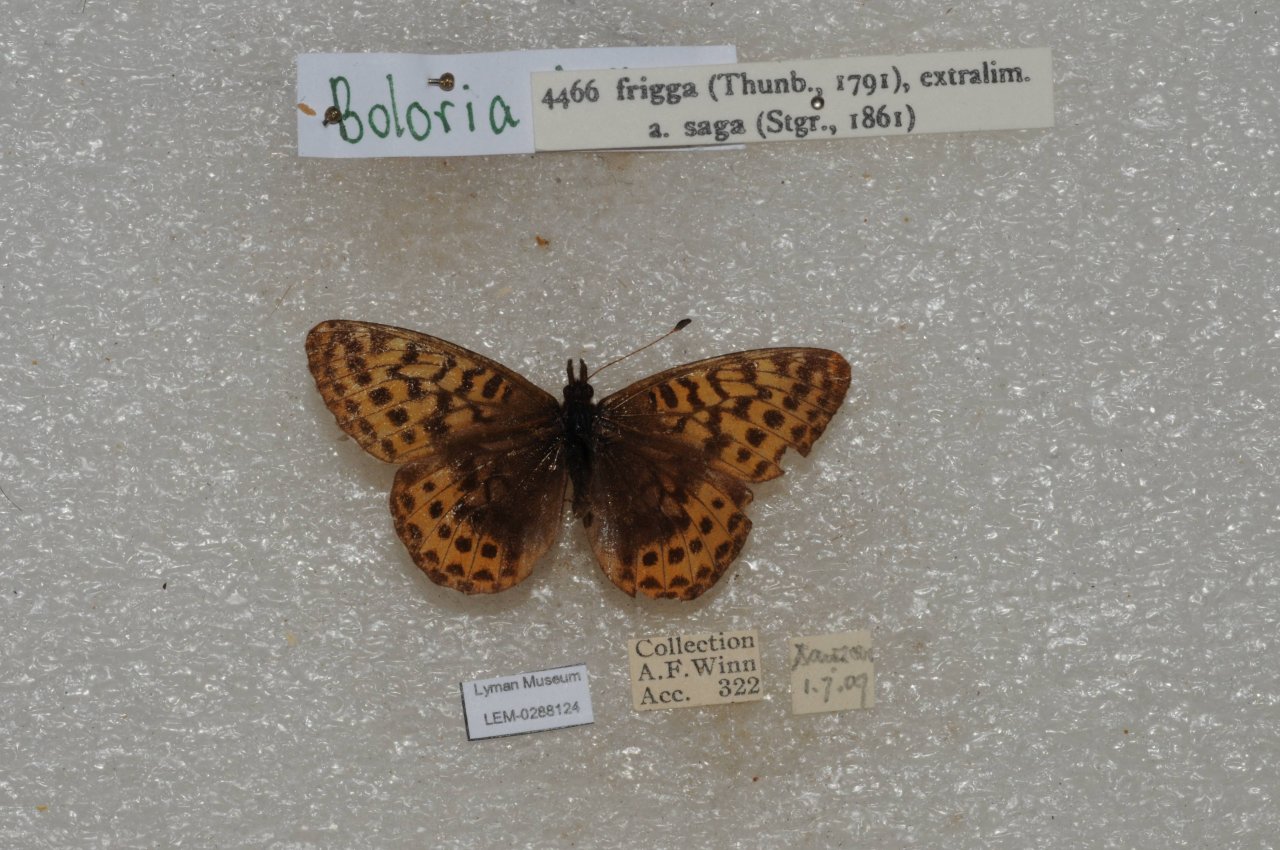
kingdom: Animalia
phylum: Arthropoda
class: Insecta
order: Lepidoptera
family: Nymphalidae
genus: Boloria
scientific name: Boloria frigga
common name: Frigga Fritillary
